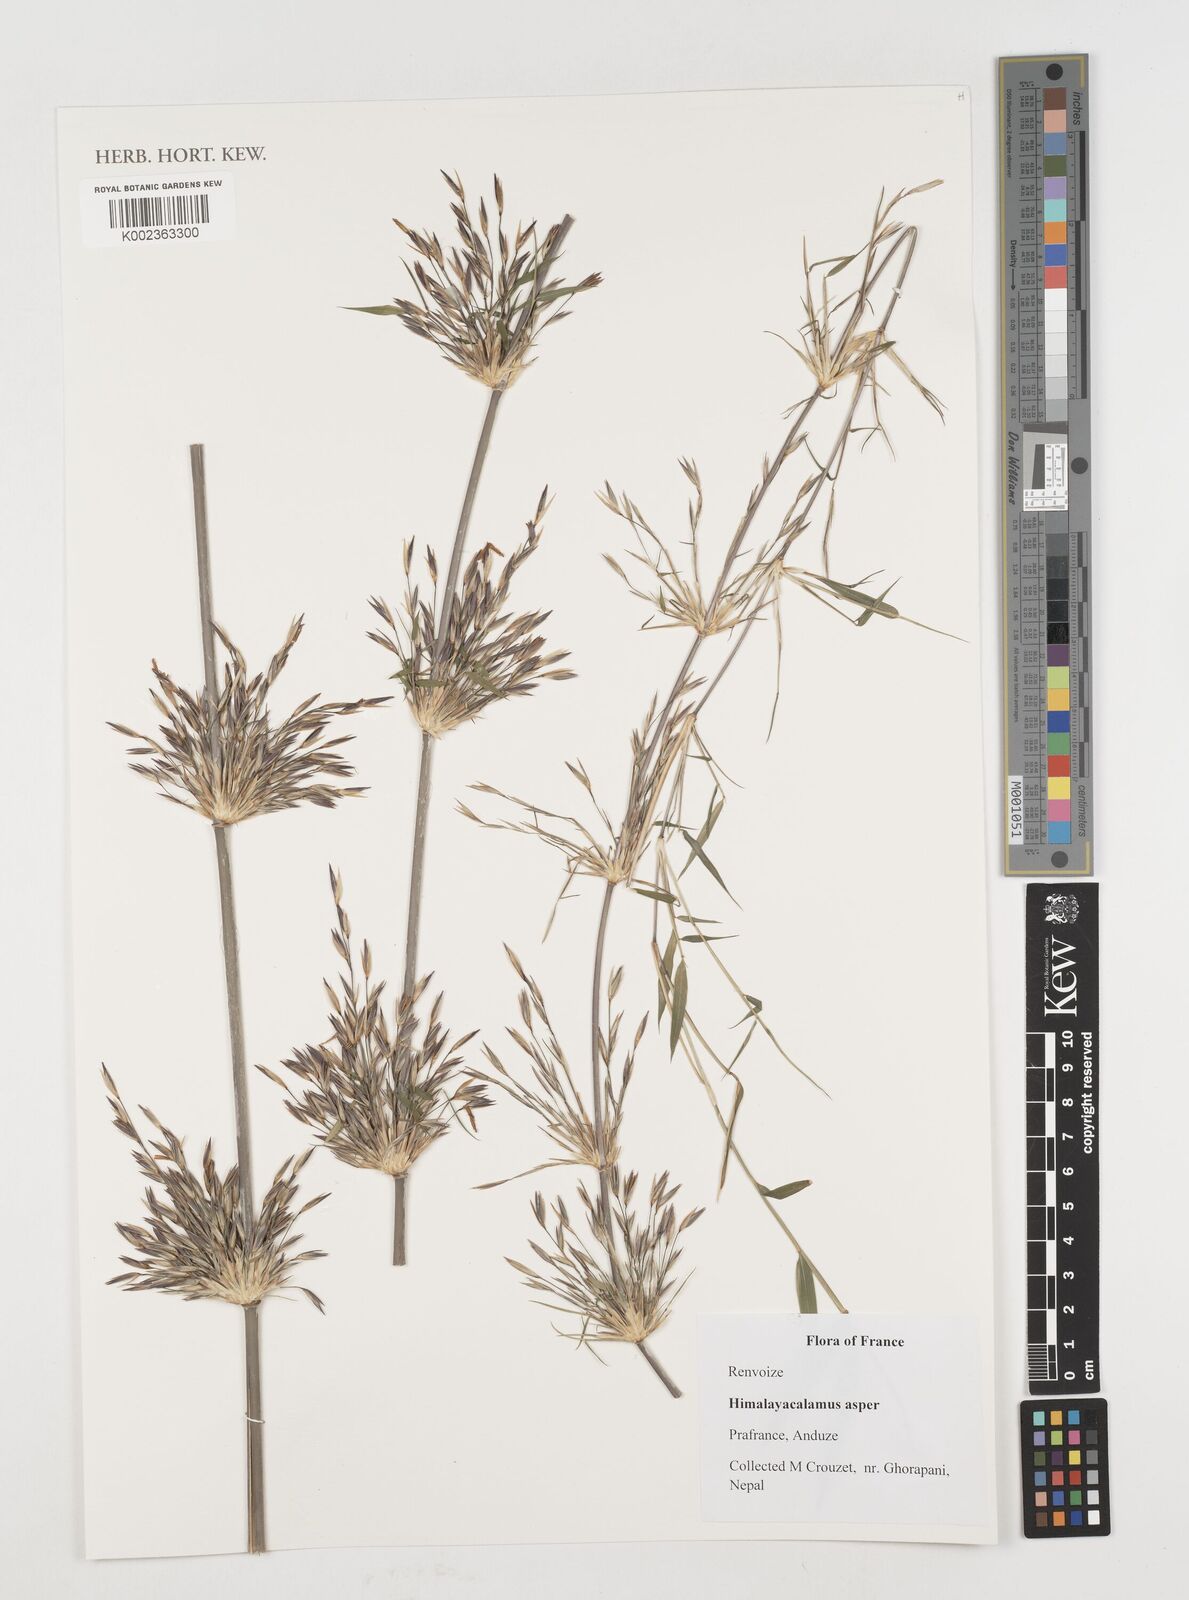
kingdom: Plantae
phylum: Tracheophyta
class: Liliopsida
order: Poales
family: Poaceae
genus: Himalayacalamus
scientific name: Himalayacalamus asper
